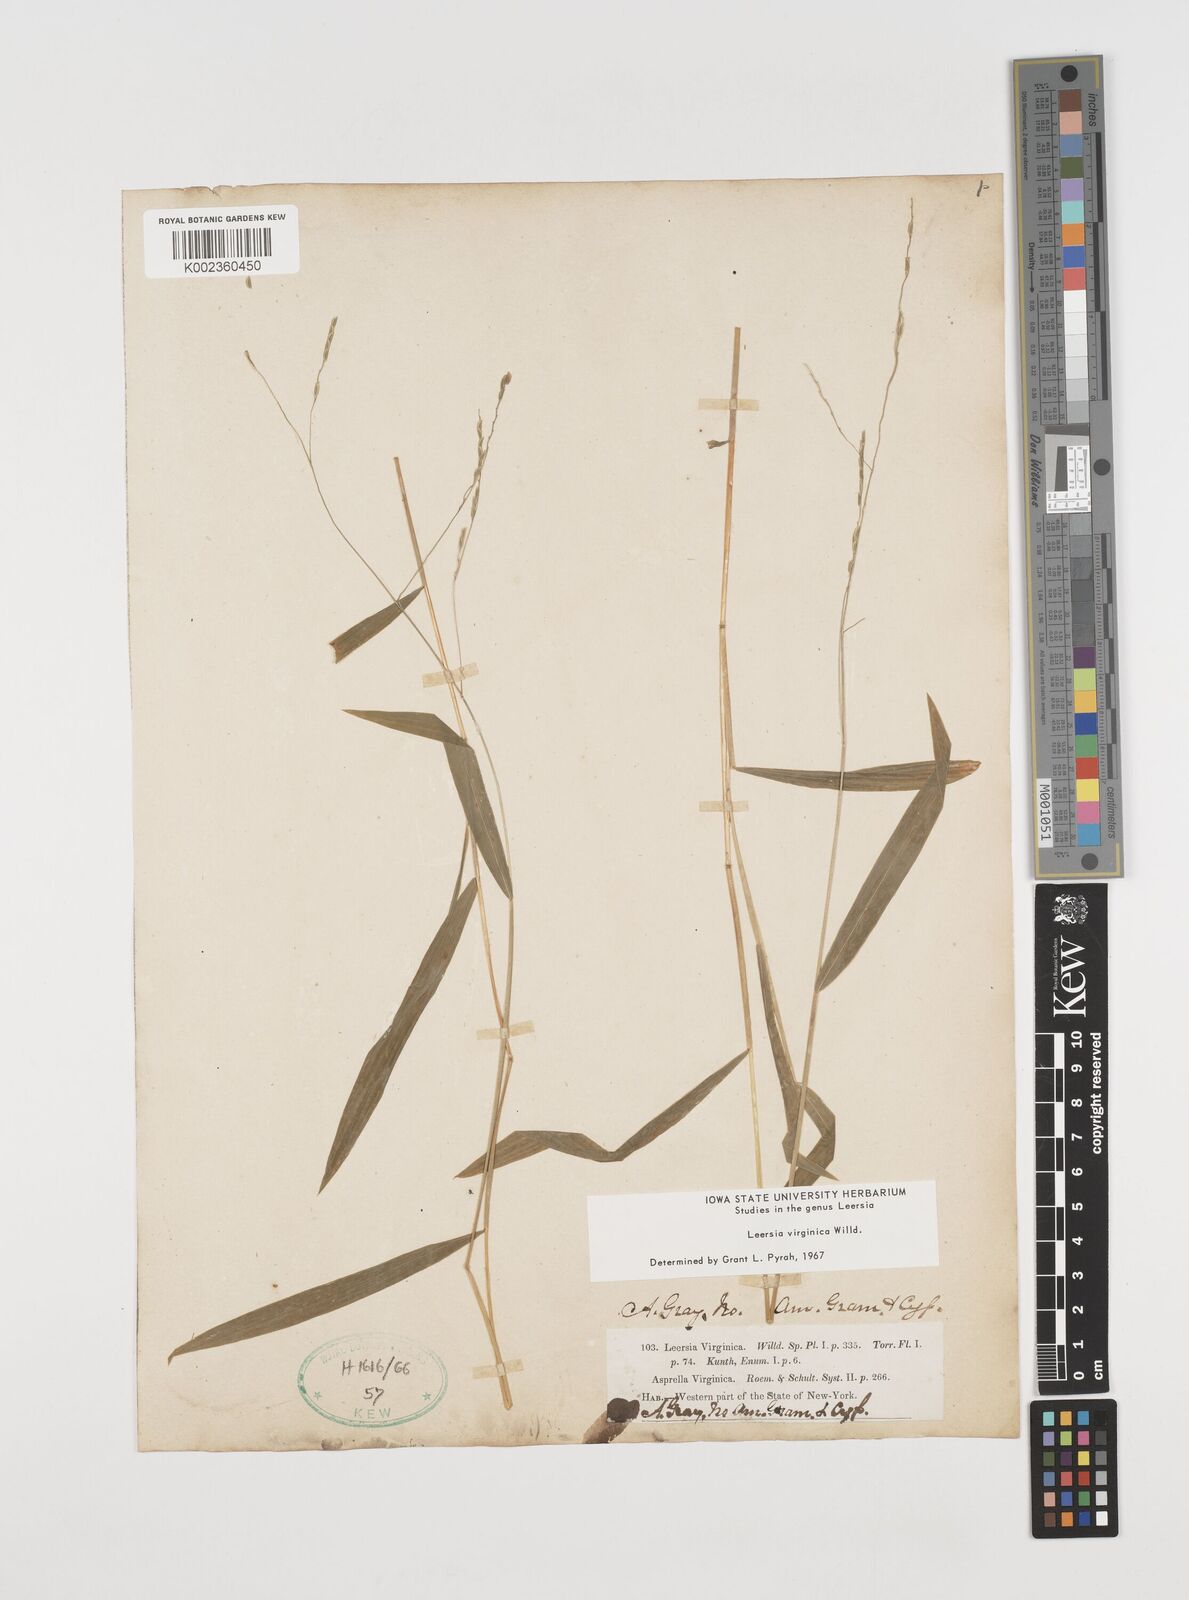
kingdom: Plantae
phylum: Tracheophyta
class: Liliopsida
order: Poales
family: Poaceae
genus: Leersia
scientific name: Leersia virginica
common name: White cutgrass
